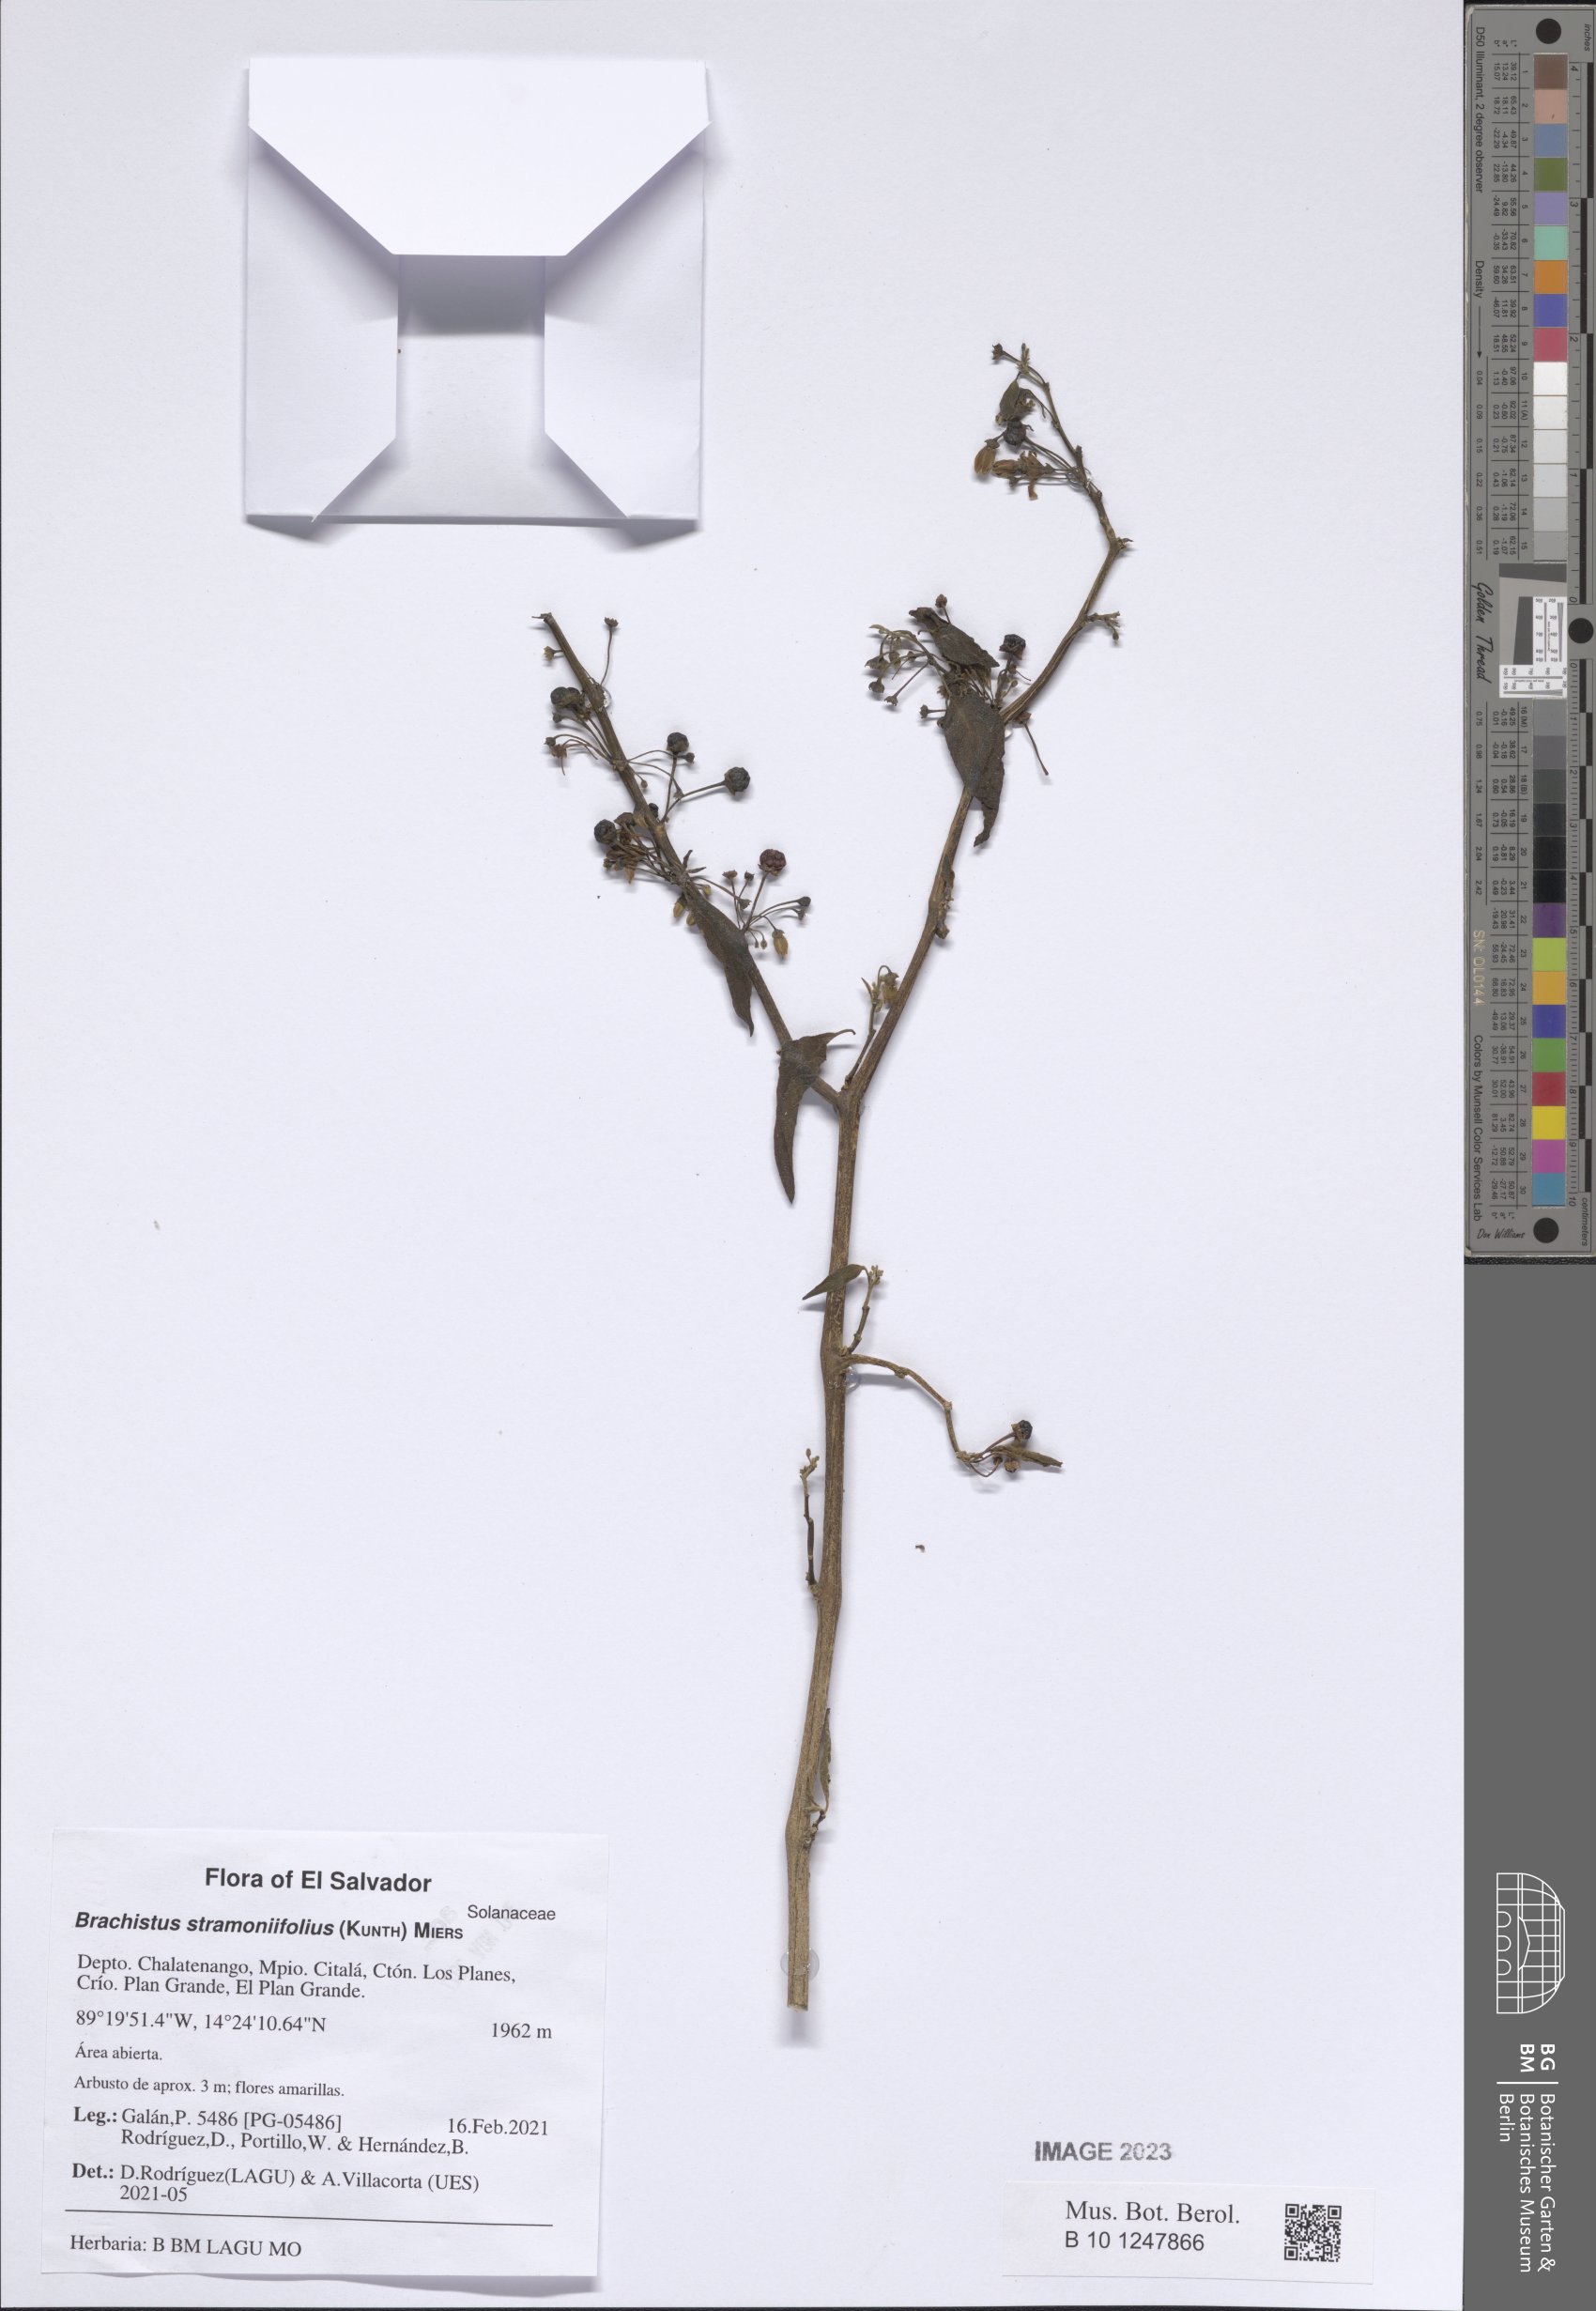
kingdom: Plantae
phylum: Tracheophyta
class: Magnoliopsida
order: Solanales
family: Solanaceae
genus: Brachistus
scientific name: Brachistus stramonifolius
